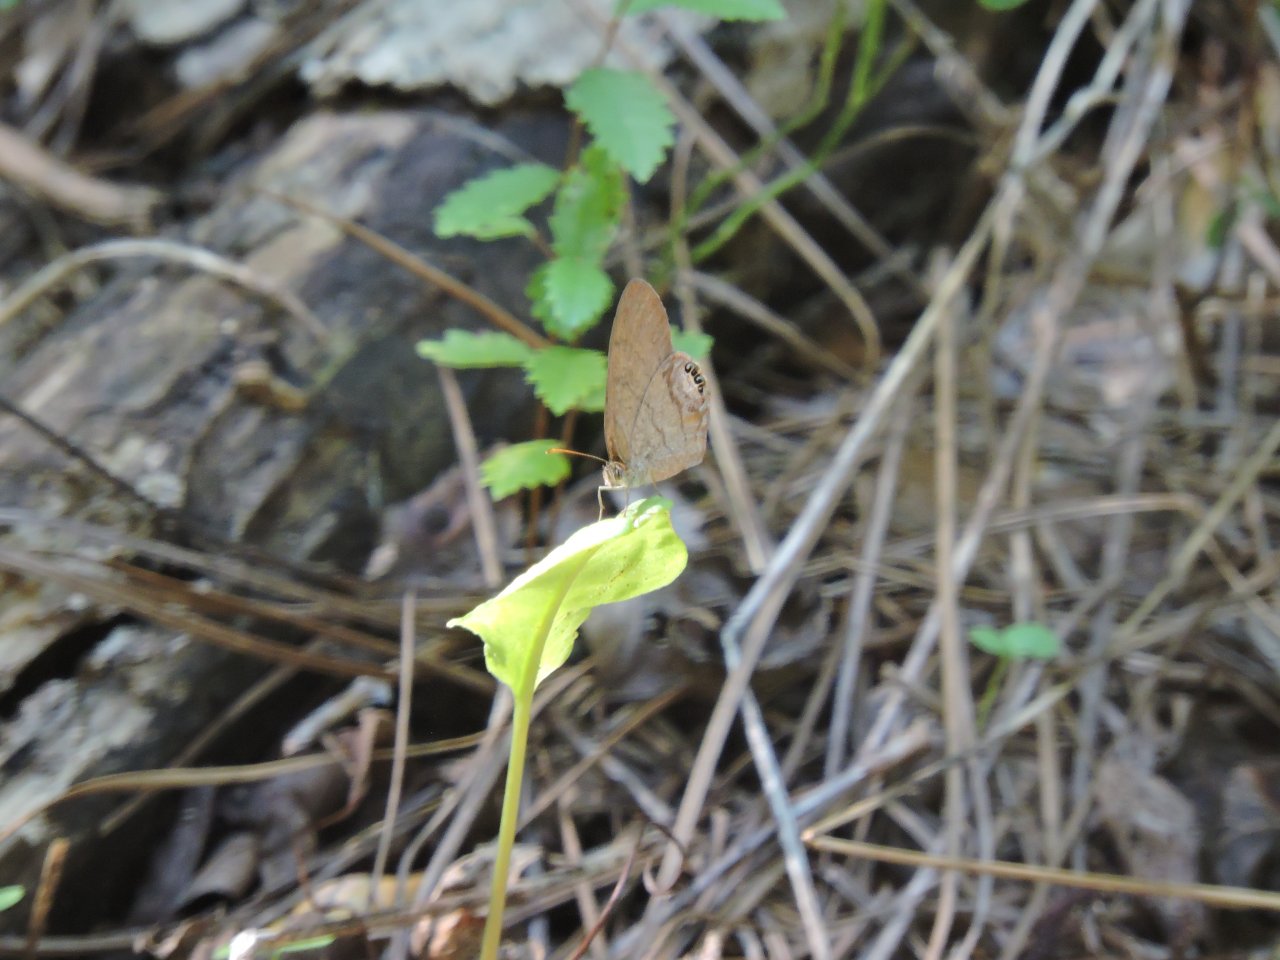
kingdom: Animalia
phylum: Arthropoda
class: Insecta
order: Lepidoptera
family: Nymphalidae
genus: Euptychia
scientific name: Euptychia cornelius
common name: Gemmed Satyr
